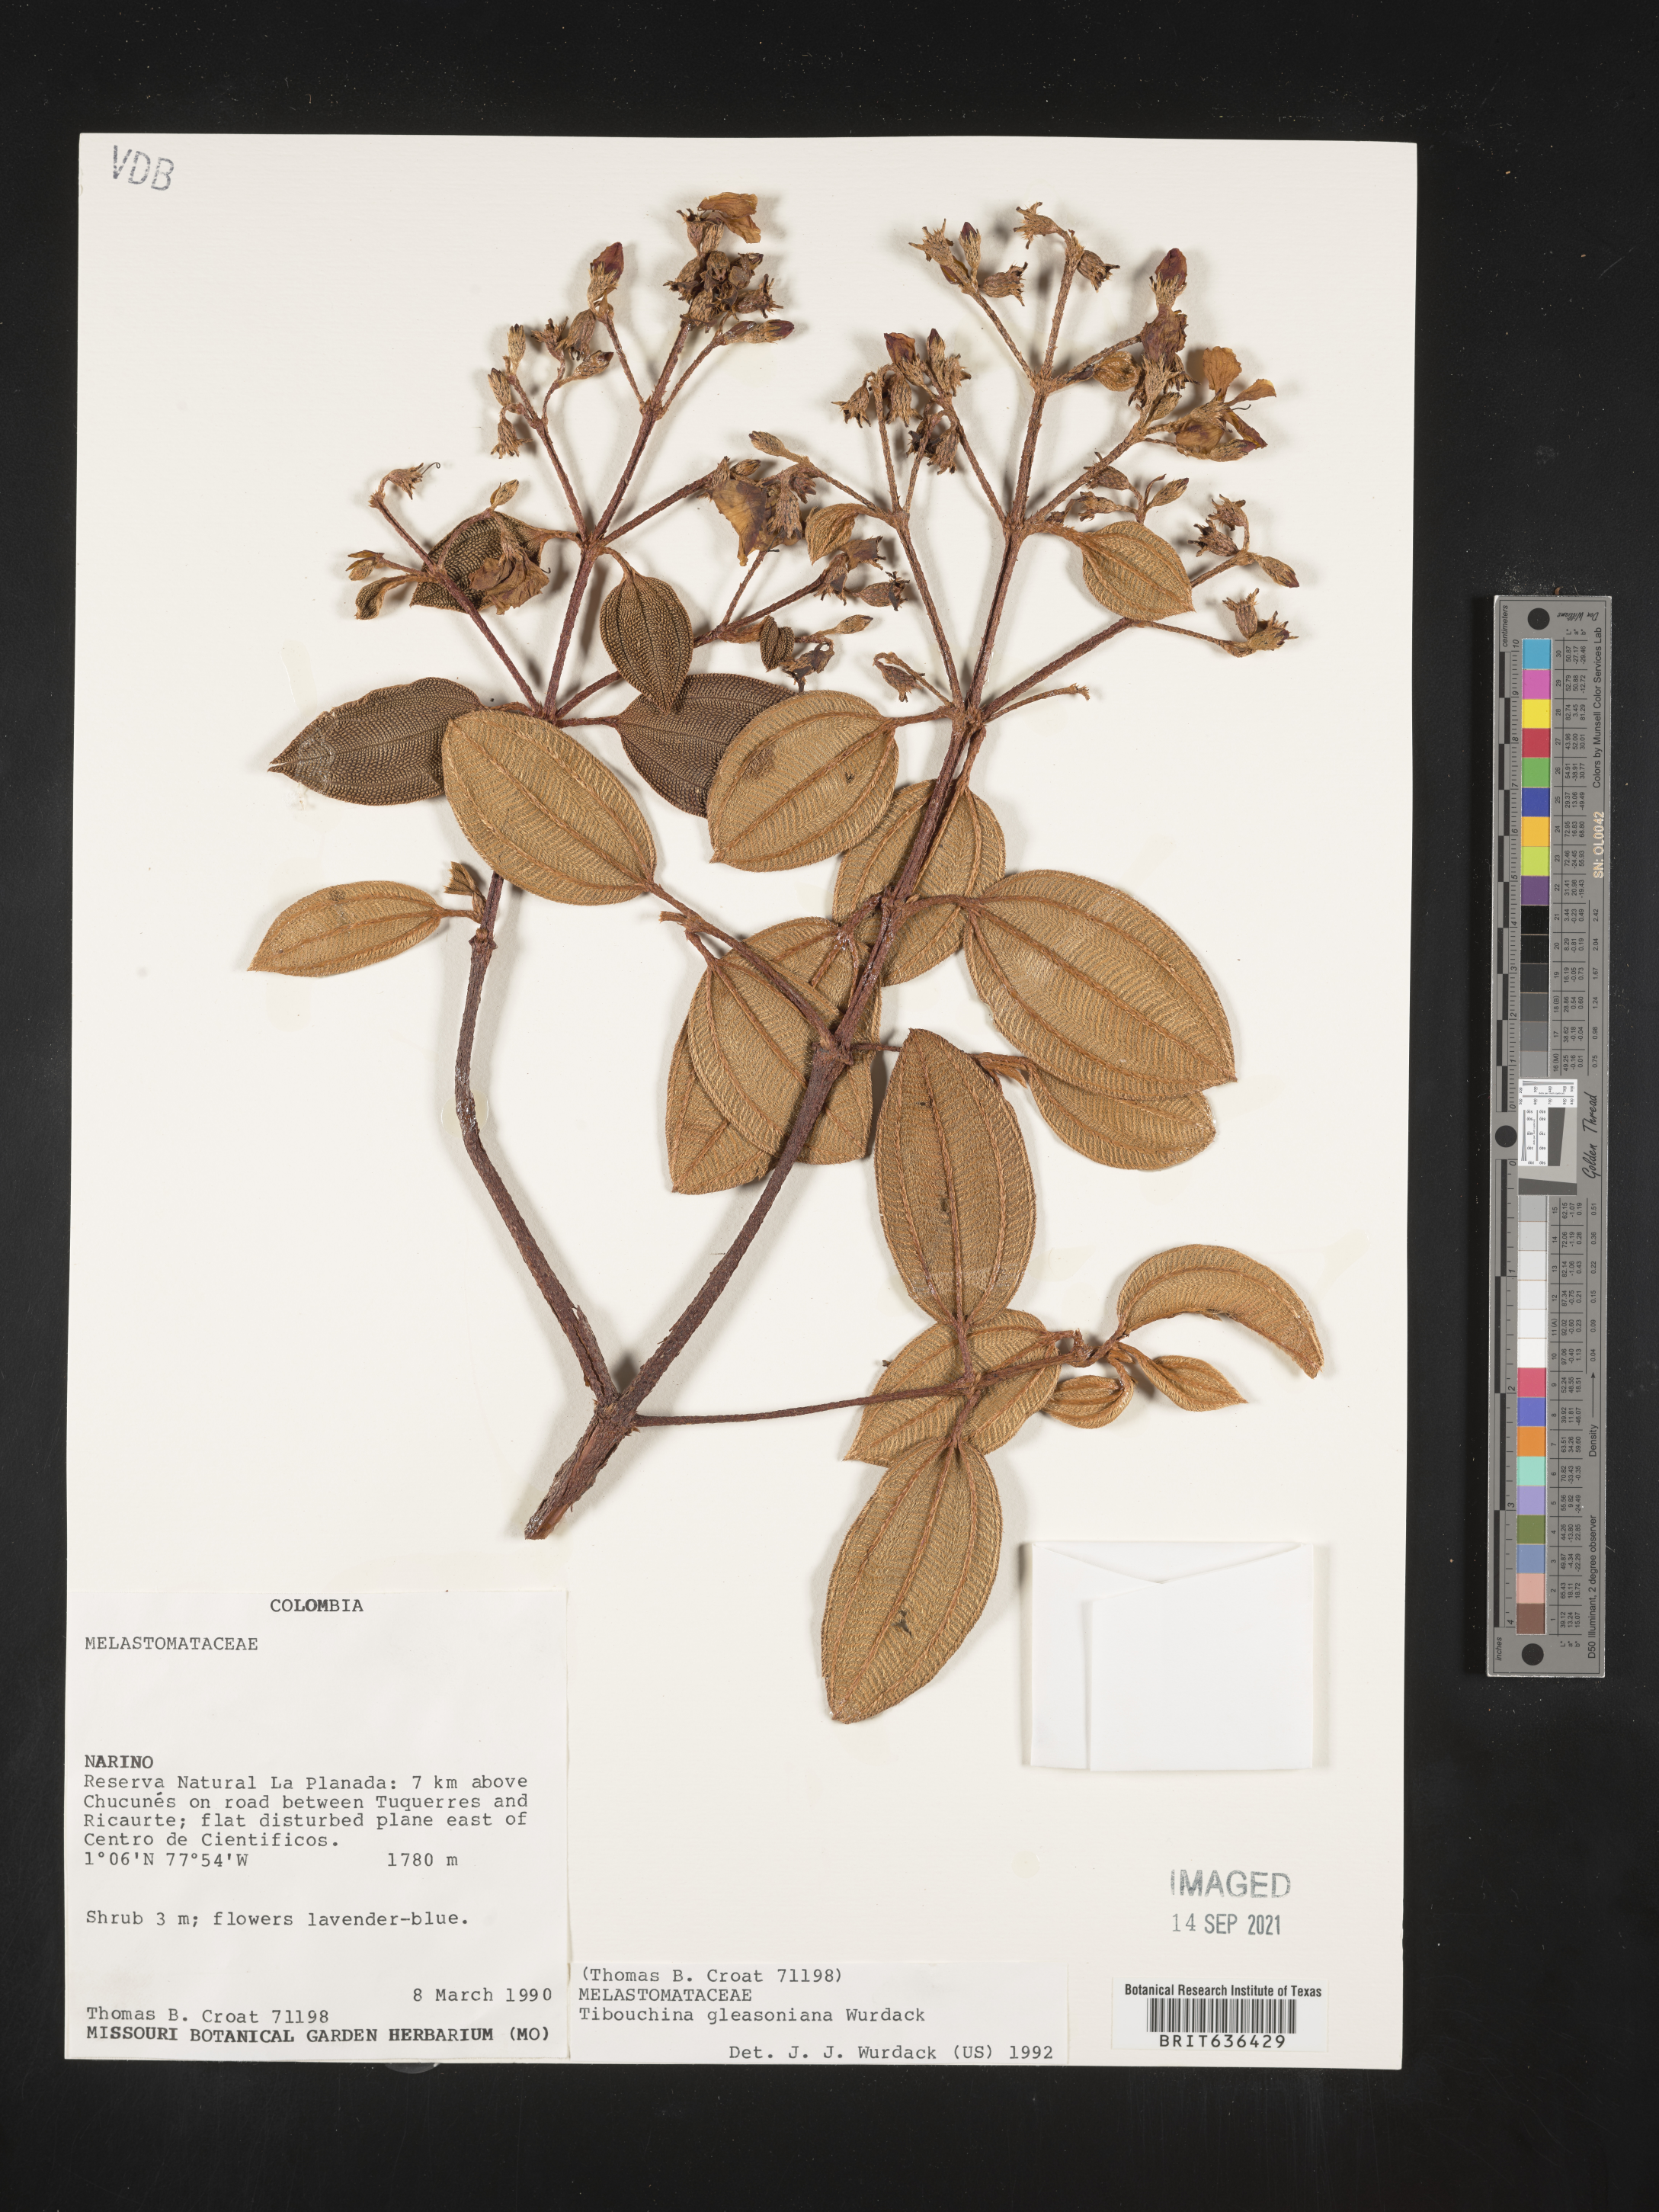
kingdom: Plantae
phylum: Tracheophyta
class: Magnoliopsida
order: Myrtales
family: Melastomataceae
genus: Tibouchina
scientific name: Tibouchina
